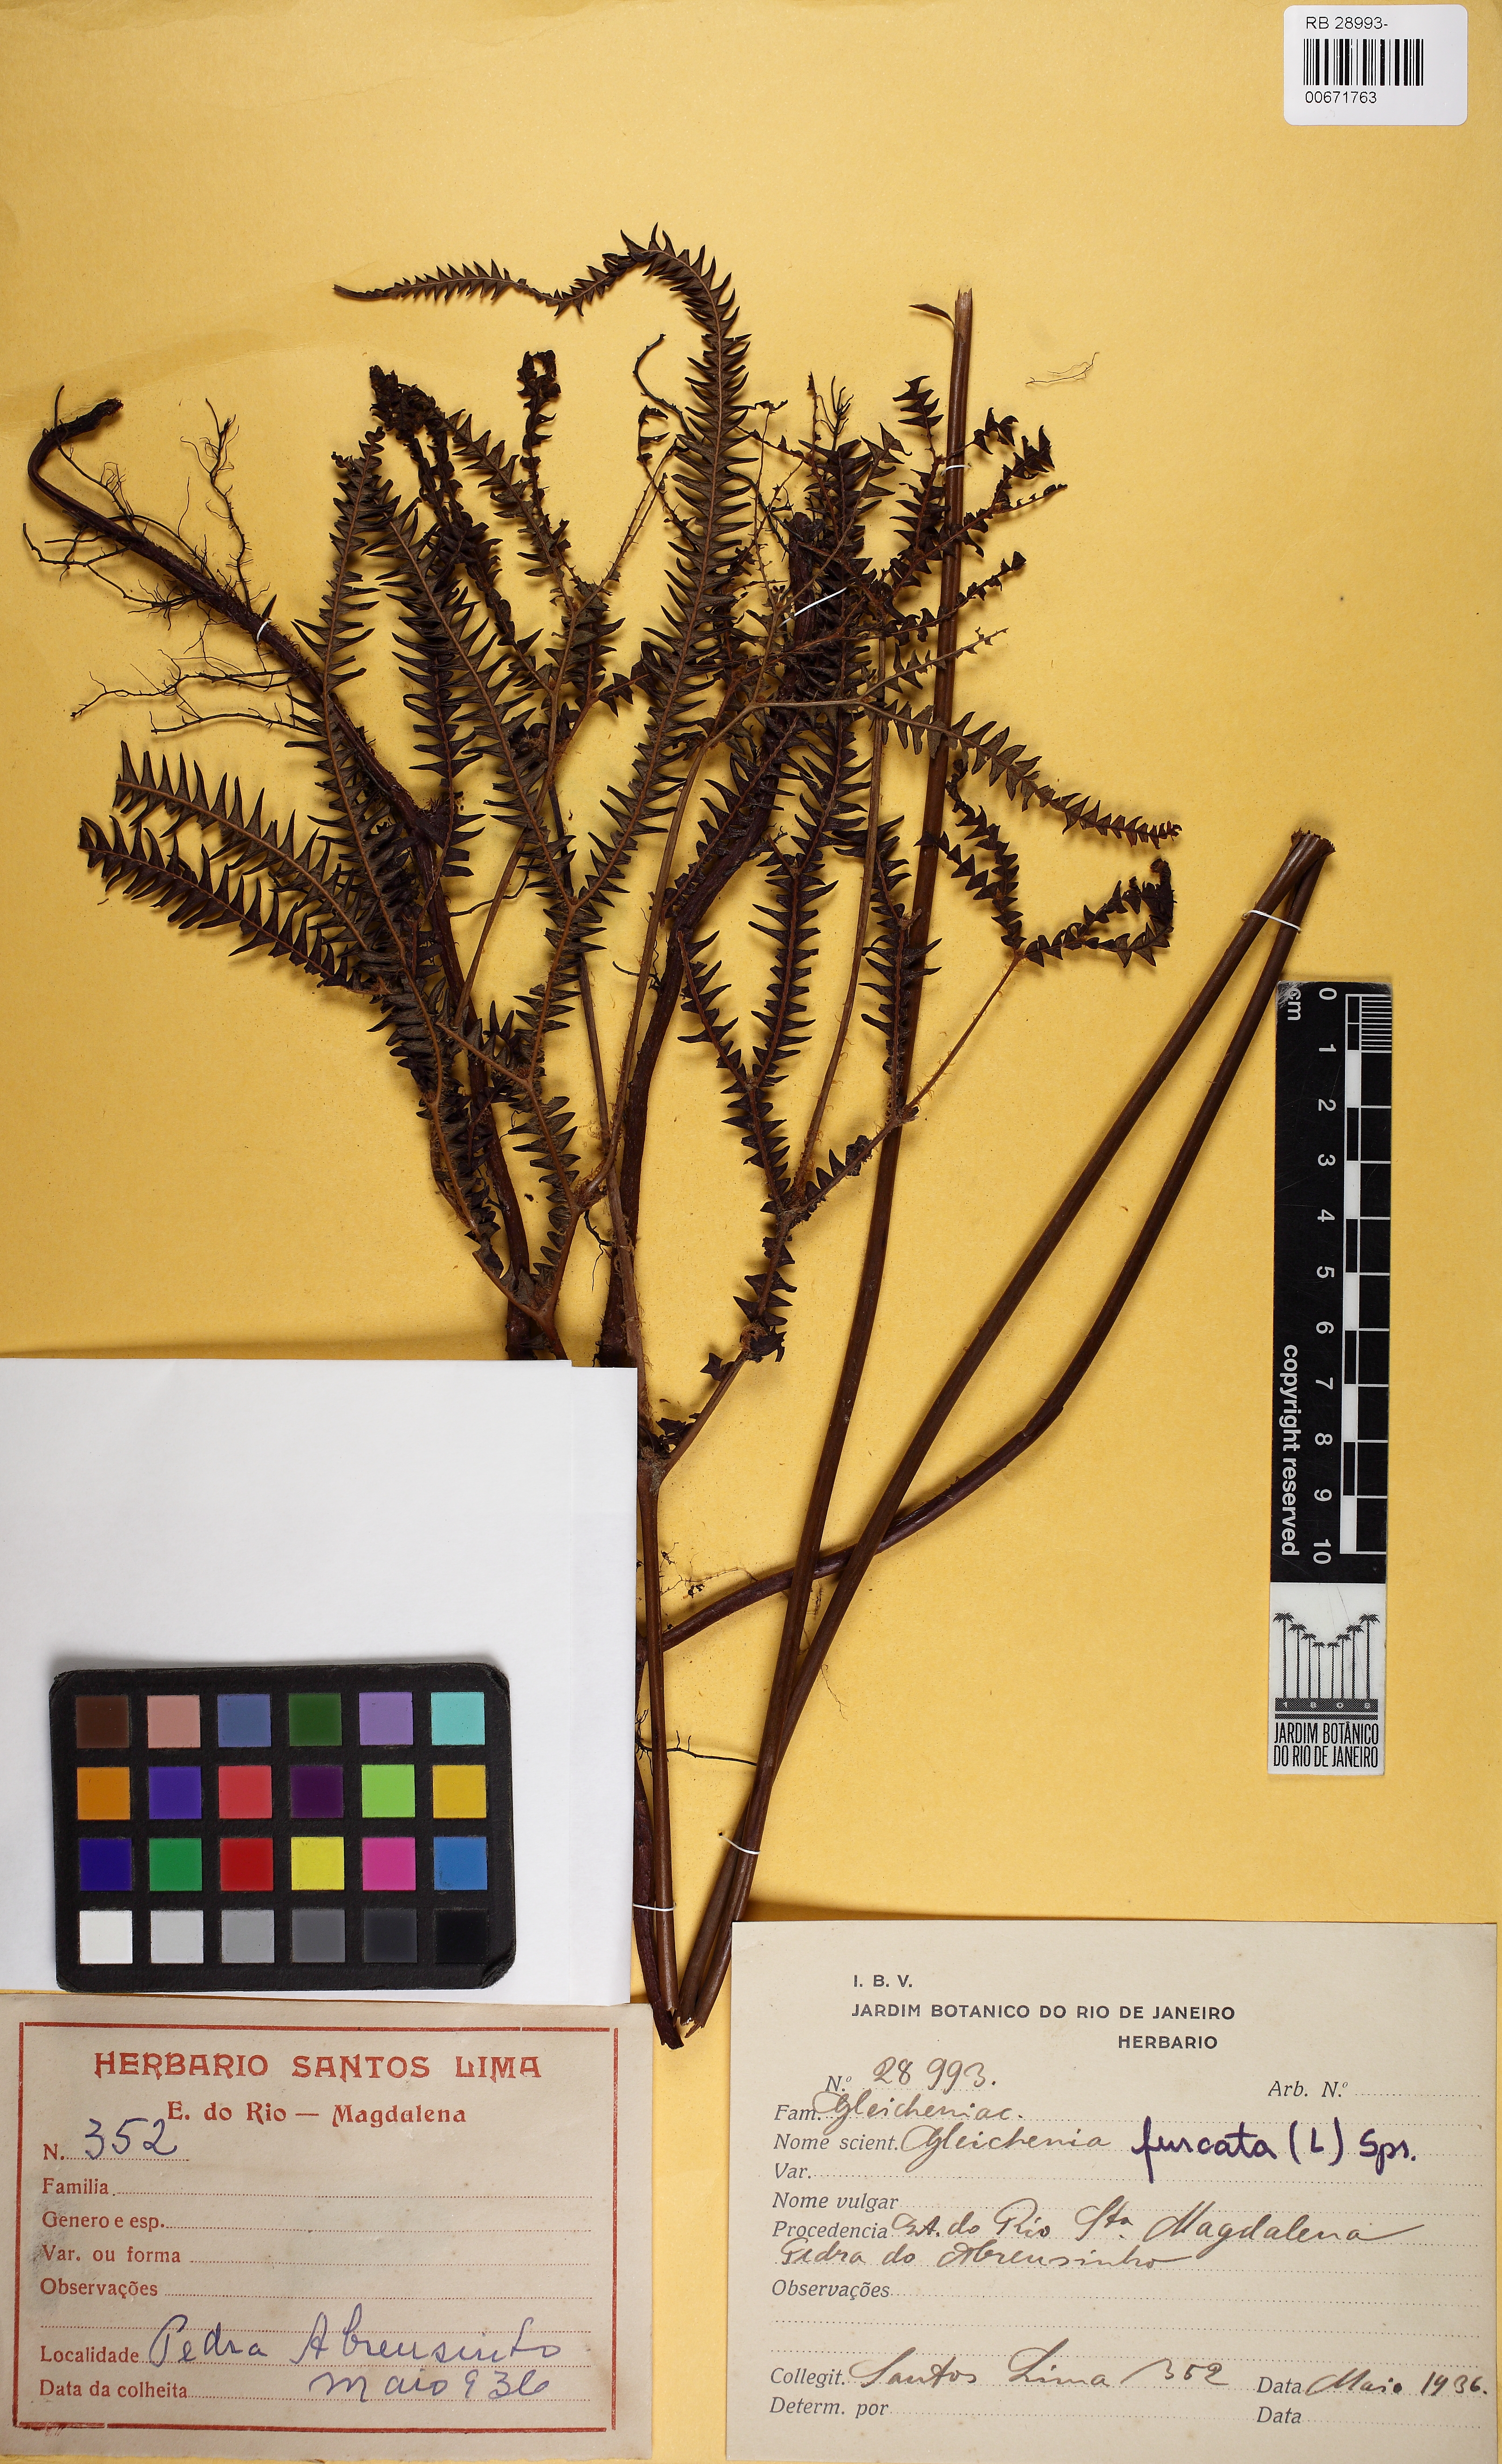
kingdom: Plantae
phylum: Tracheophyta
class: Polypodiopsida
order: Gleicheniales
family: Gleicheniaceae
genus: Sticherus
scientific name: Sticherus pruinosus
